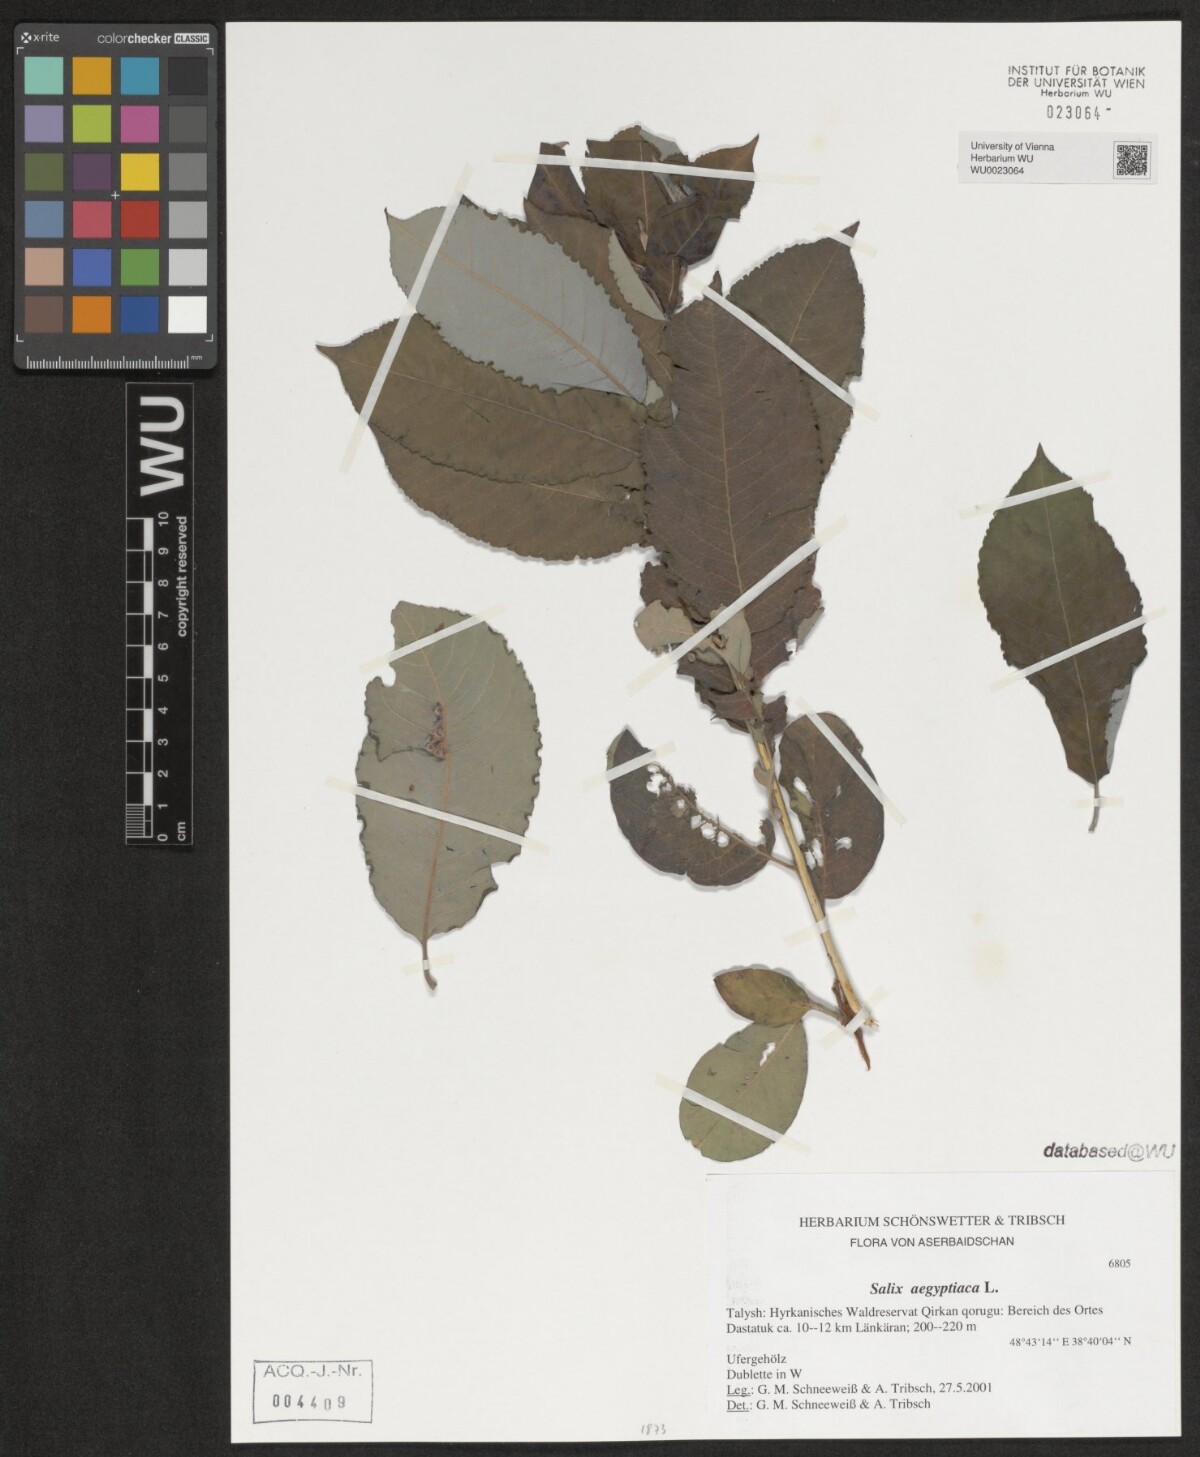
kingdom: Plantae
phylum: Tracheophyta
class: Magnoliopsida
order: Malpighiales
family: Salicaceae
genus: Salix
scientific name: Salix aegyptiaca
